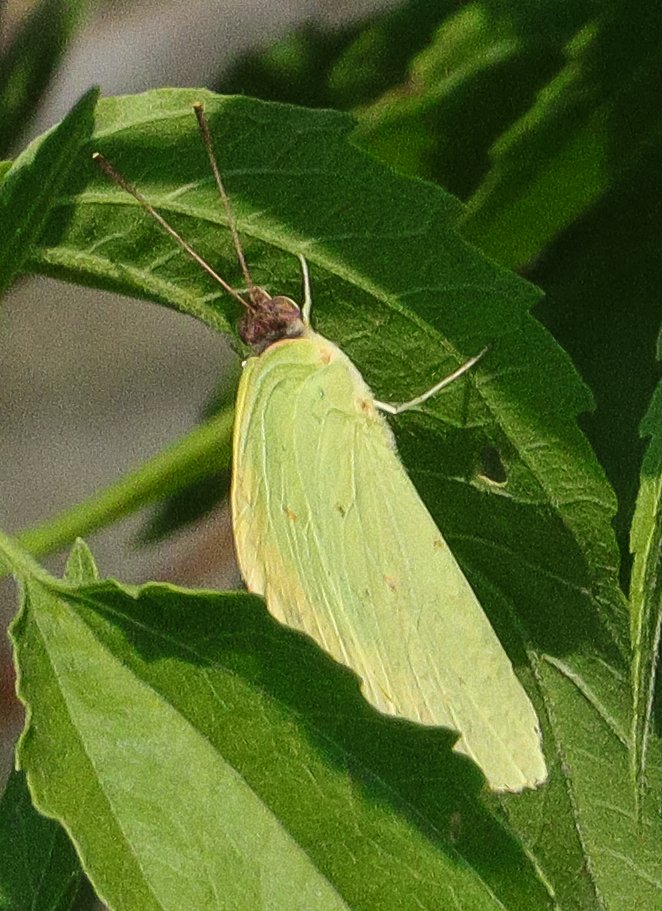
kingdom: Animalia
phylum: Arthropoda
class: Insecta
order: Lepidoptera
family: Pieridae
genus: Phoebis
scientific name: Phoebis sennae
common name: Cloudless Sulphur
